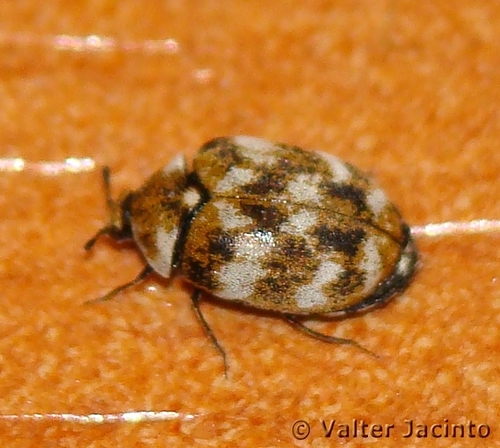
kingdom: Animalia
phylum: Arthropoda
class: Insecta
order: Coleoptera
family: Dermestidae
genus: Anthrenus
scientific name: Anthrenus verbasci
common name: Varied carpet beetle
